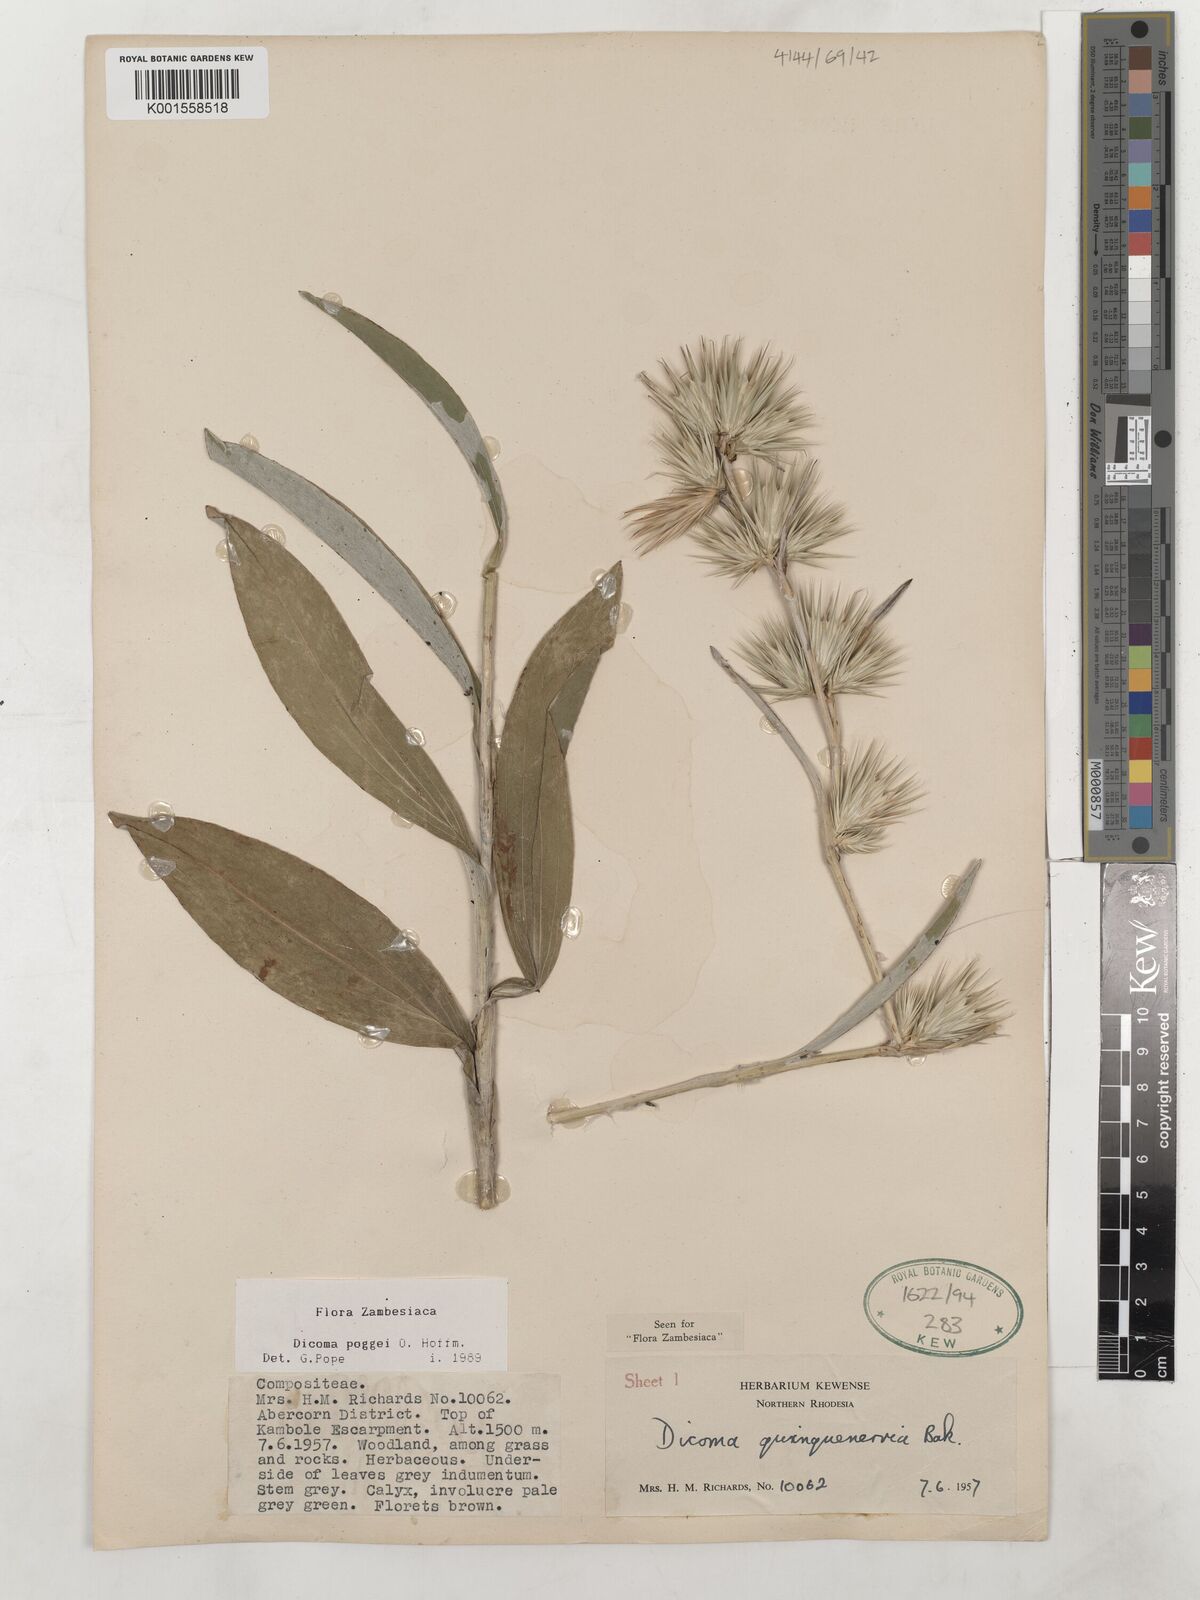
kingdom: Plantae
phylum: Tracheophyta
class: Magnoliopsida
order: Asterales
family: Asteraceae
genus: Macledium
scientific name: Macledium poggei
